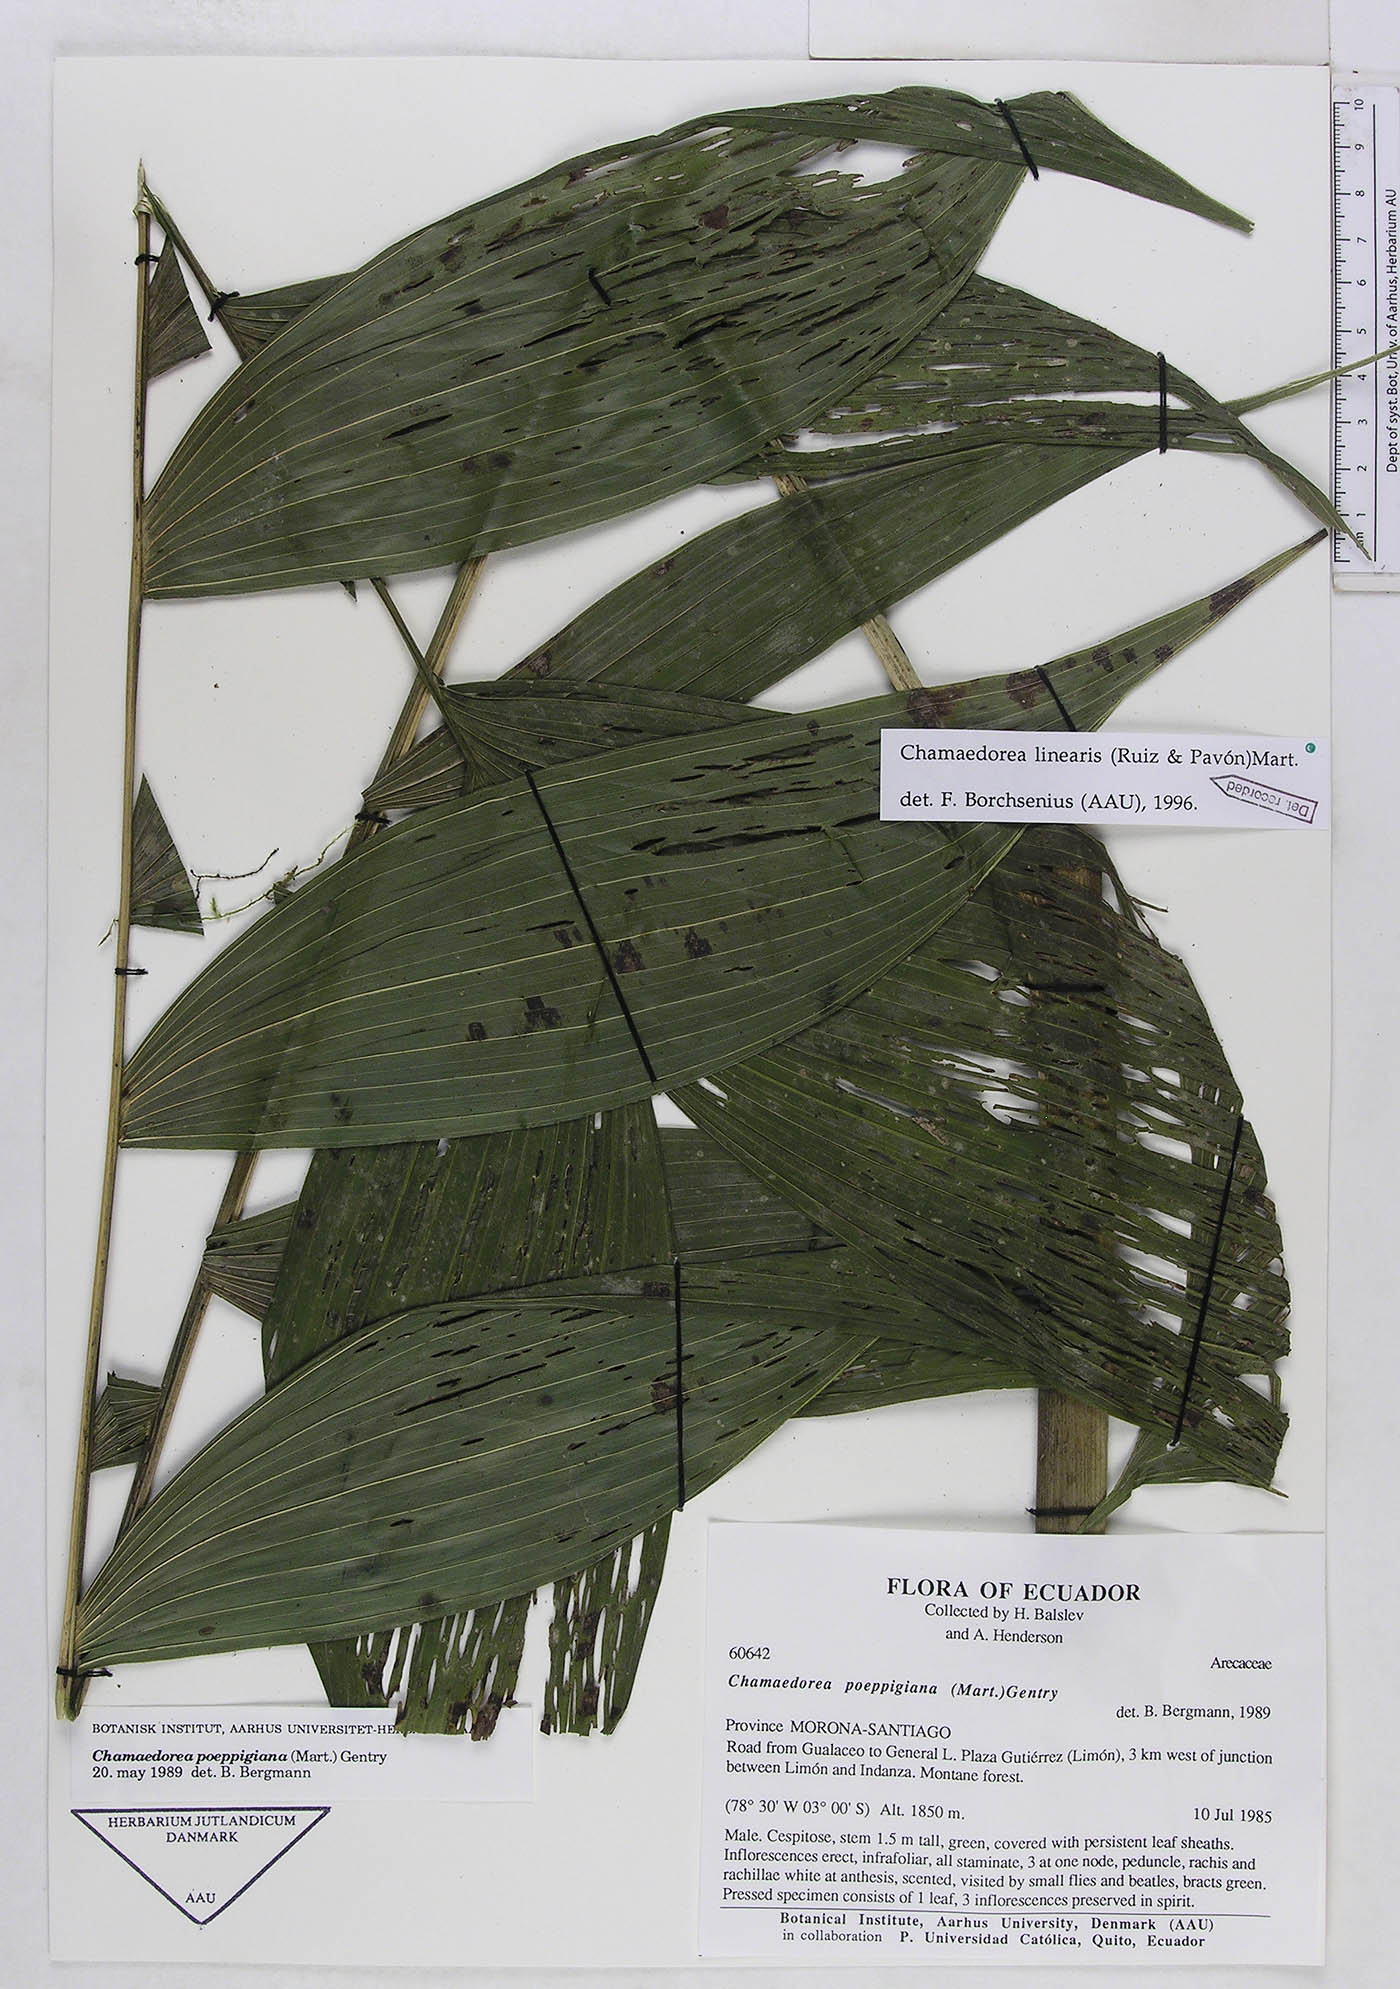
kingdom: Plantae
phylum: Tracheophyta
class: Liliopsida
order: Arecales
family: Arecaceae
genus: Chamaedorea
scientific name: Chamaedorea linearis
